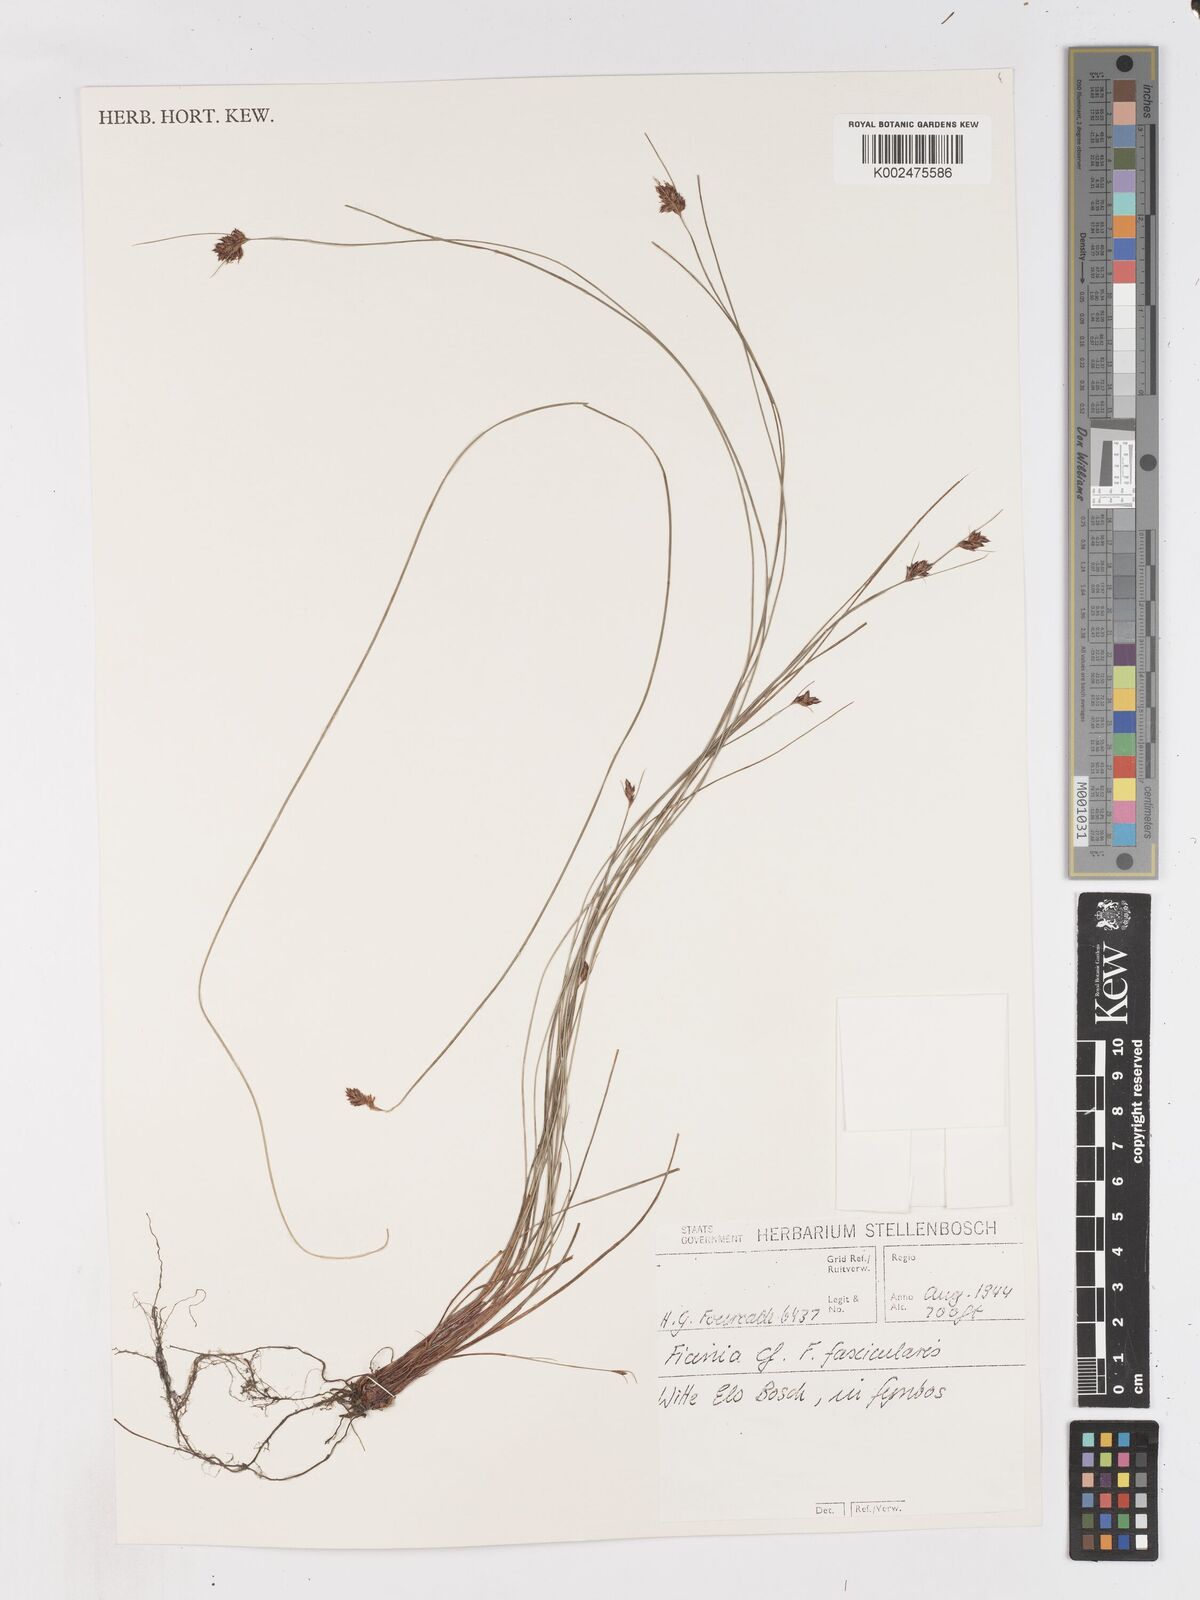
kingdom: Plantae
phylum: Tracheophyta
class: Liliopsida
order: Poales
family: Cyperaceae
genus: Ficinia
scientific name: Ficinia fascicularis
